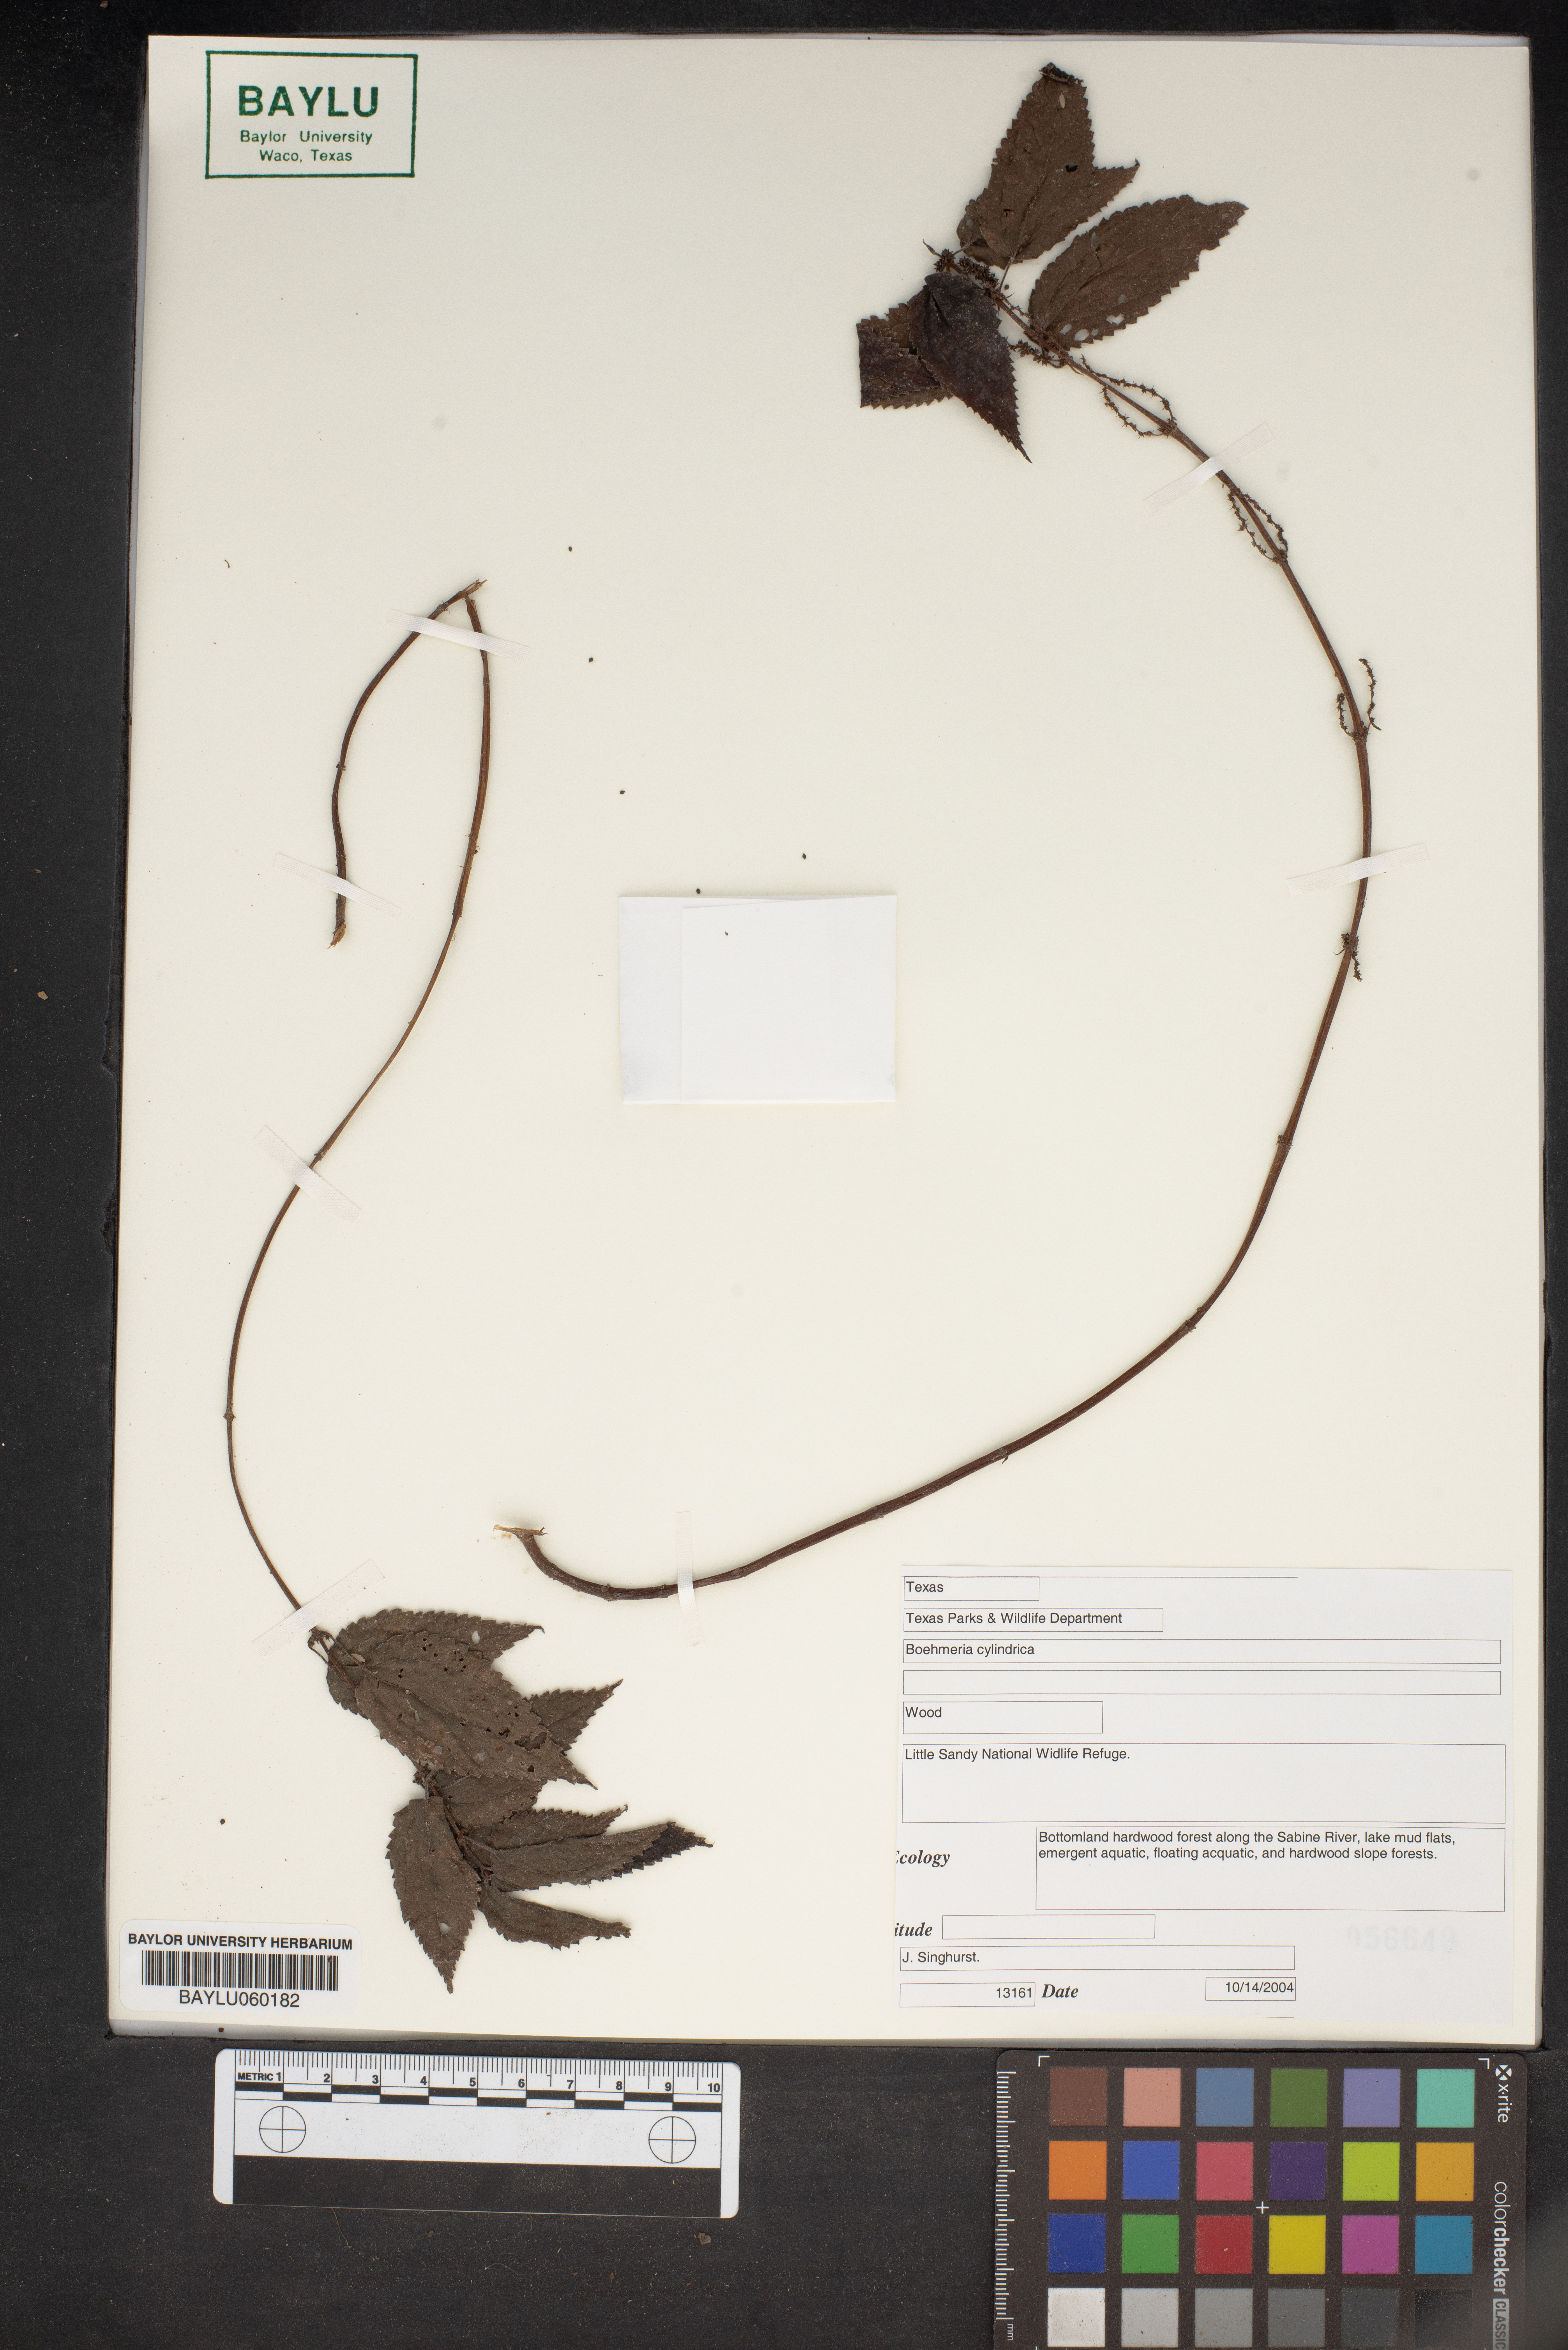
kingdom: Plantae
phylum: Tracheophyta
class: Magnoliopsida
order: Rosales
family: Urticaceae
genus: Boehmeria
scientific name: Boehmeria cylindrica
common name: Bog-hemp
